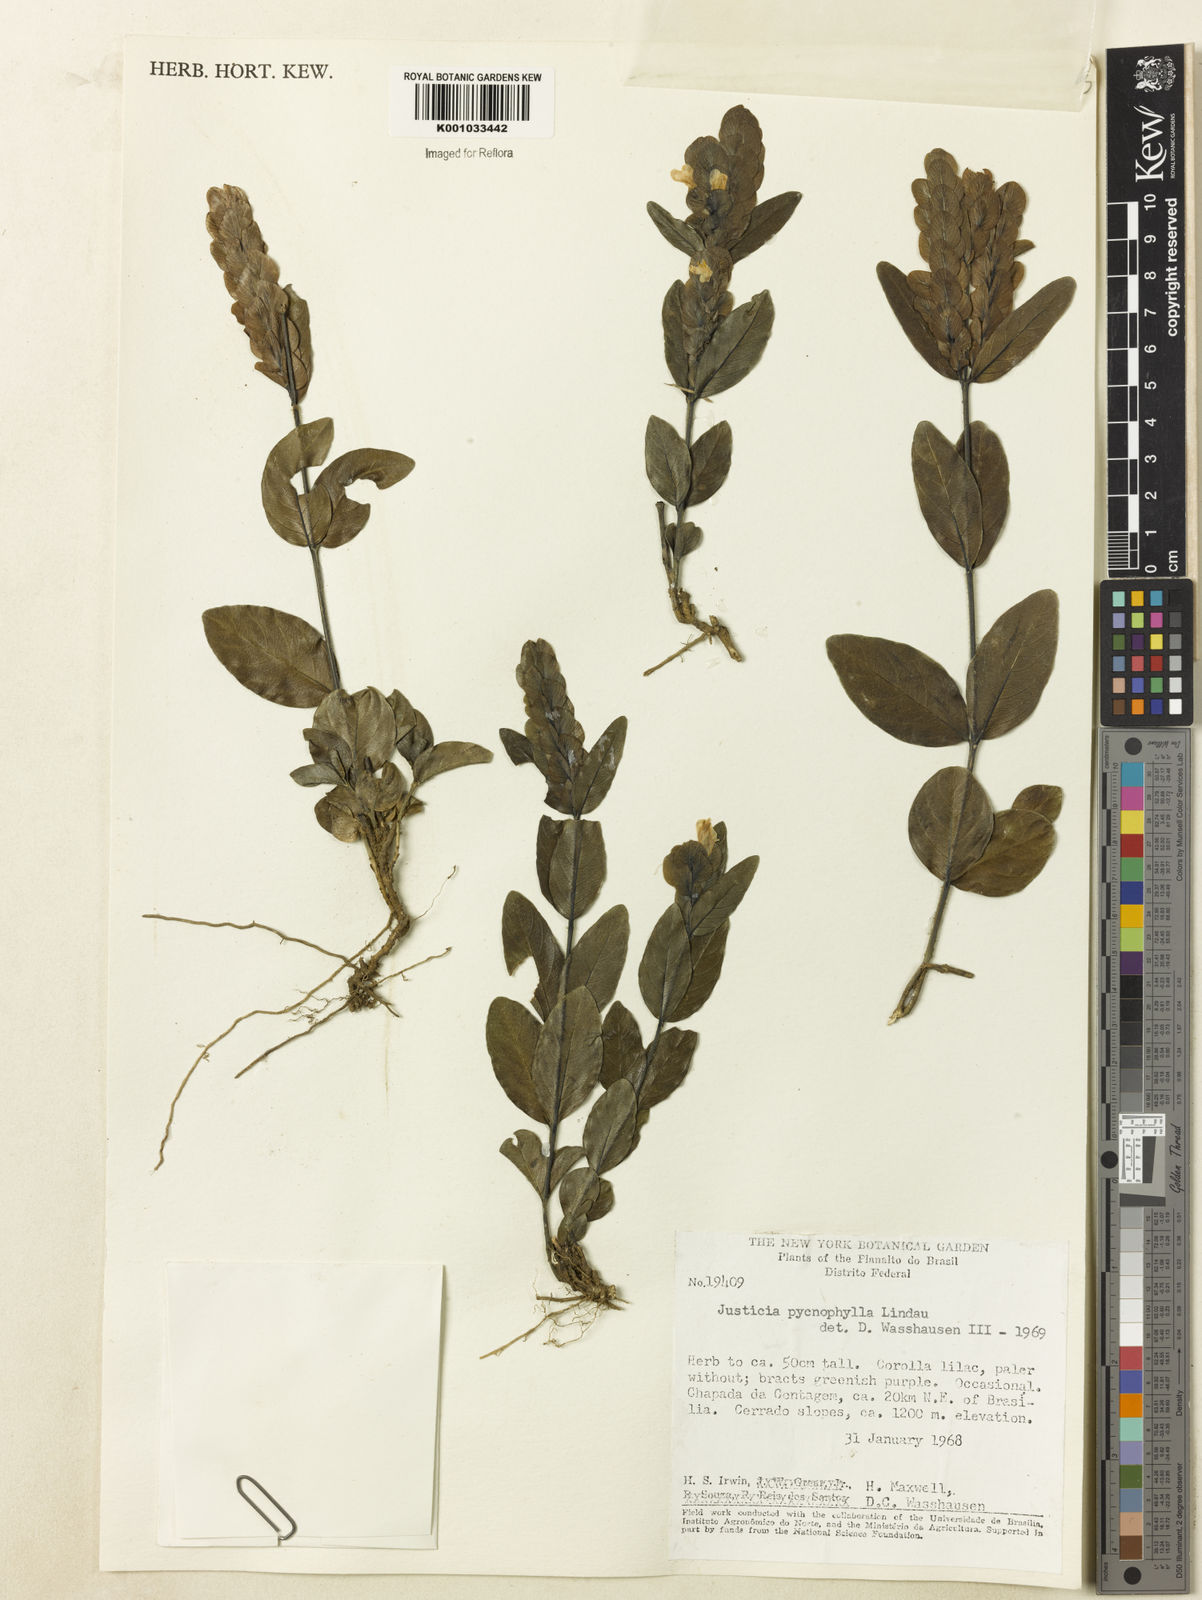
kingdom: Plantae
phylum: Tracheophyta
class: Magnoliopsida
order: Lamiales
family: Acanthaceae
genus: Justicia
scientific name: Justicia pycnophylla
